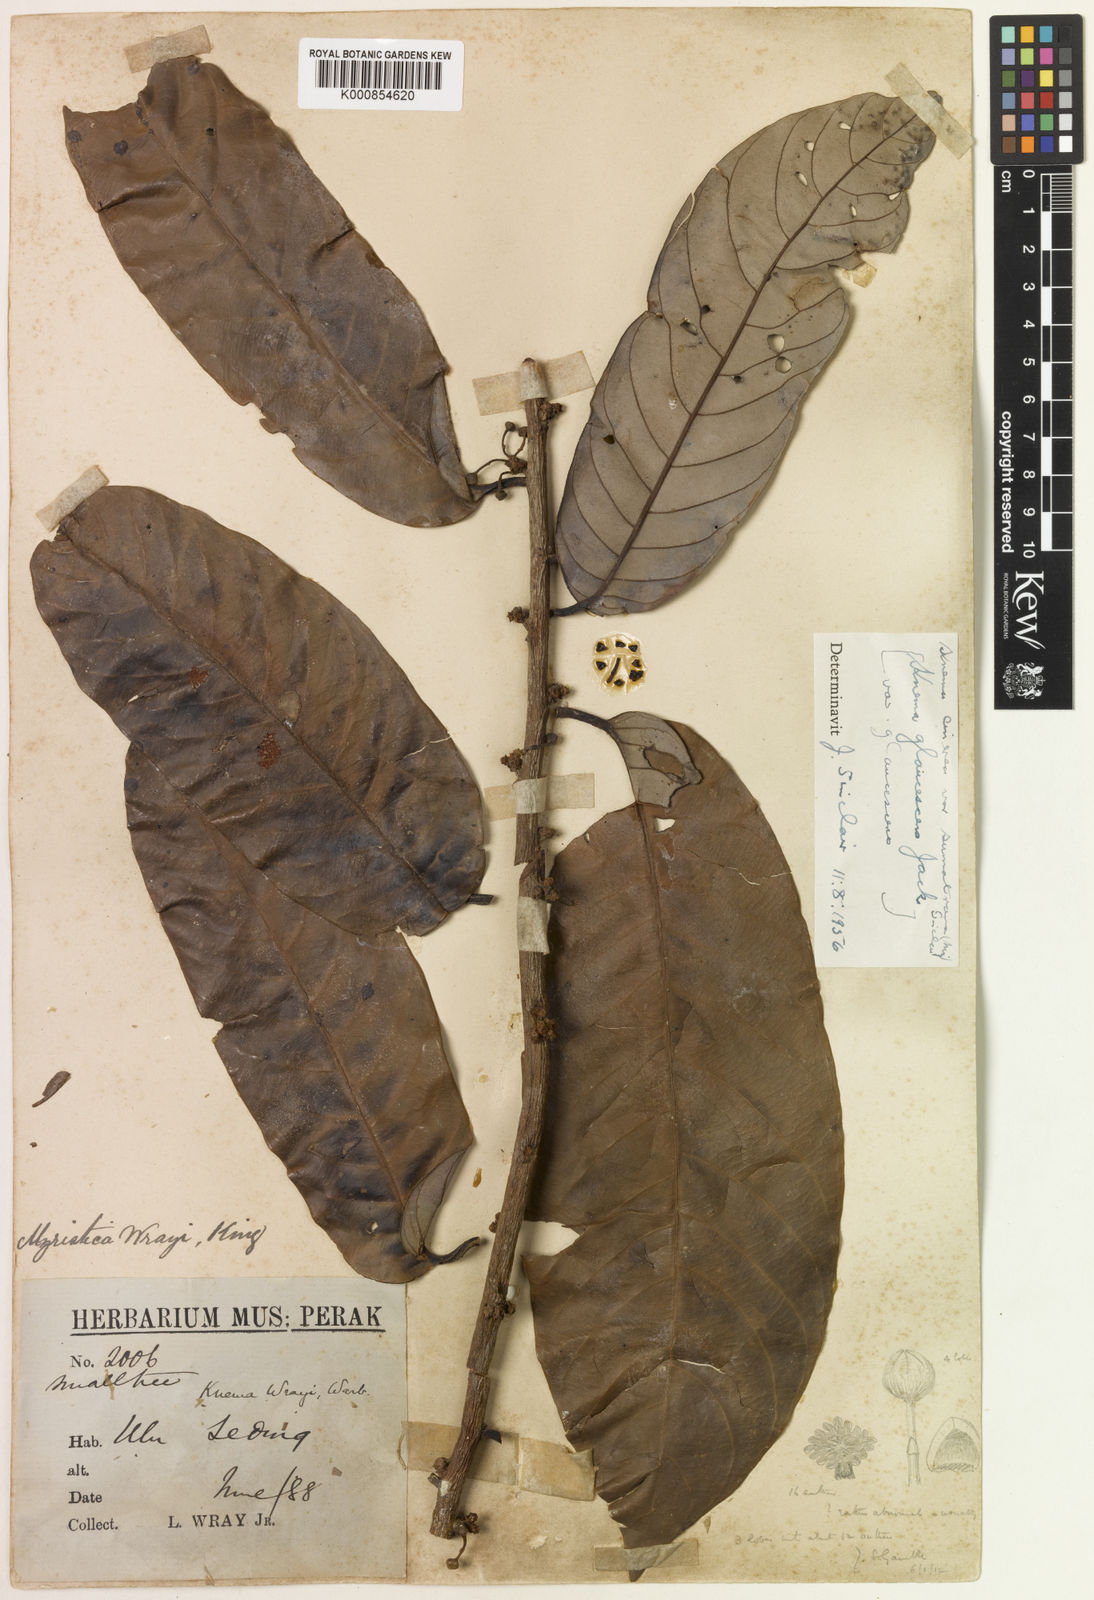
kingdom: Plantae
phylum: Tracheophyta
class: Magnoliopsida
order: Magnoliales
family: Myristicaceae
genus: Knema
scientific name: Knema cinerea
